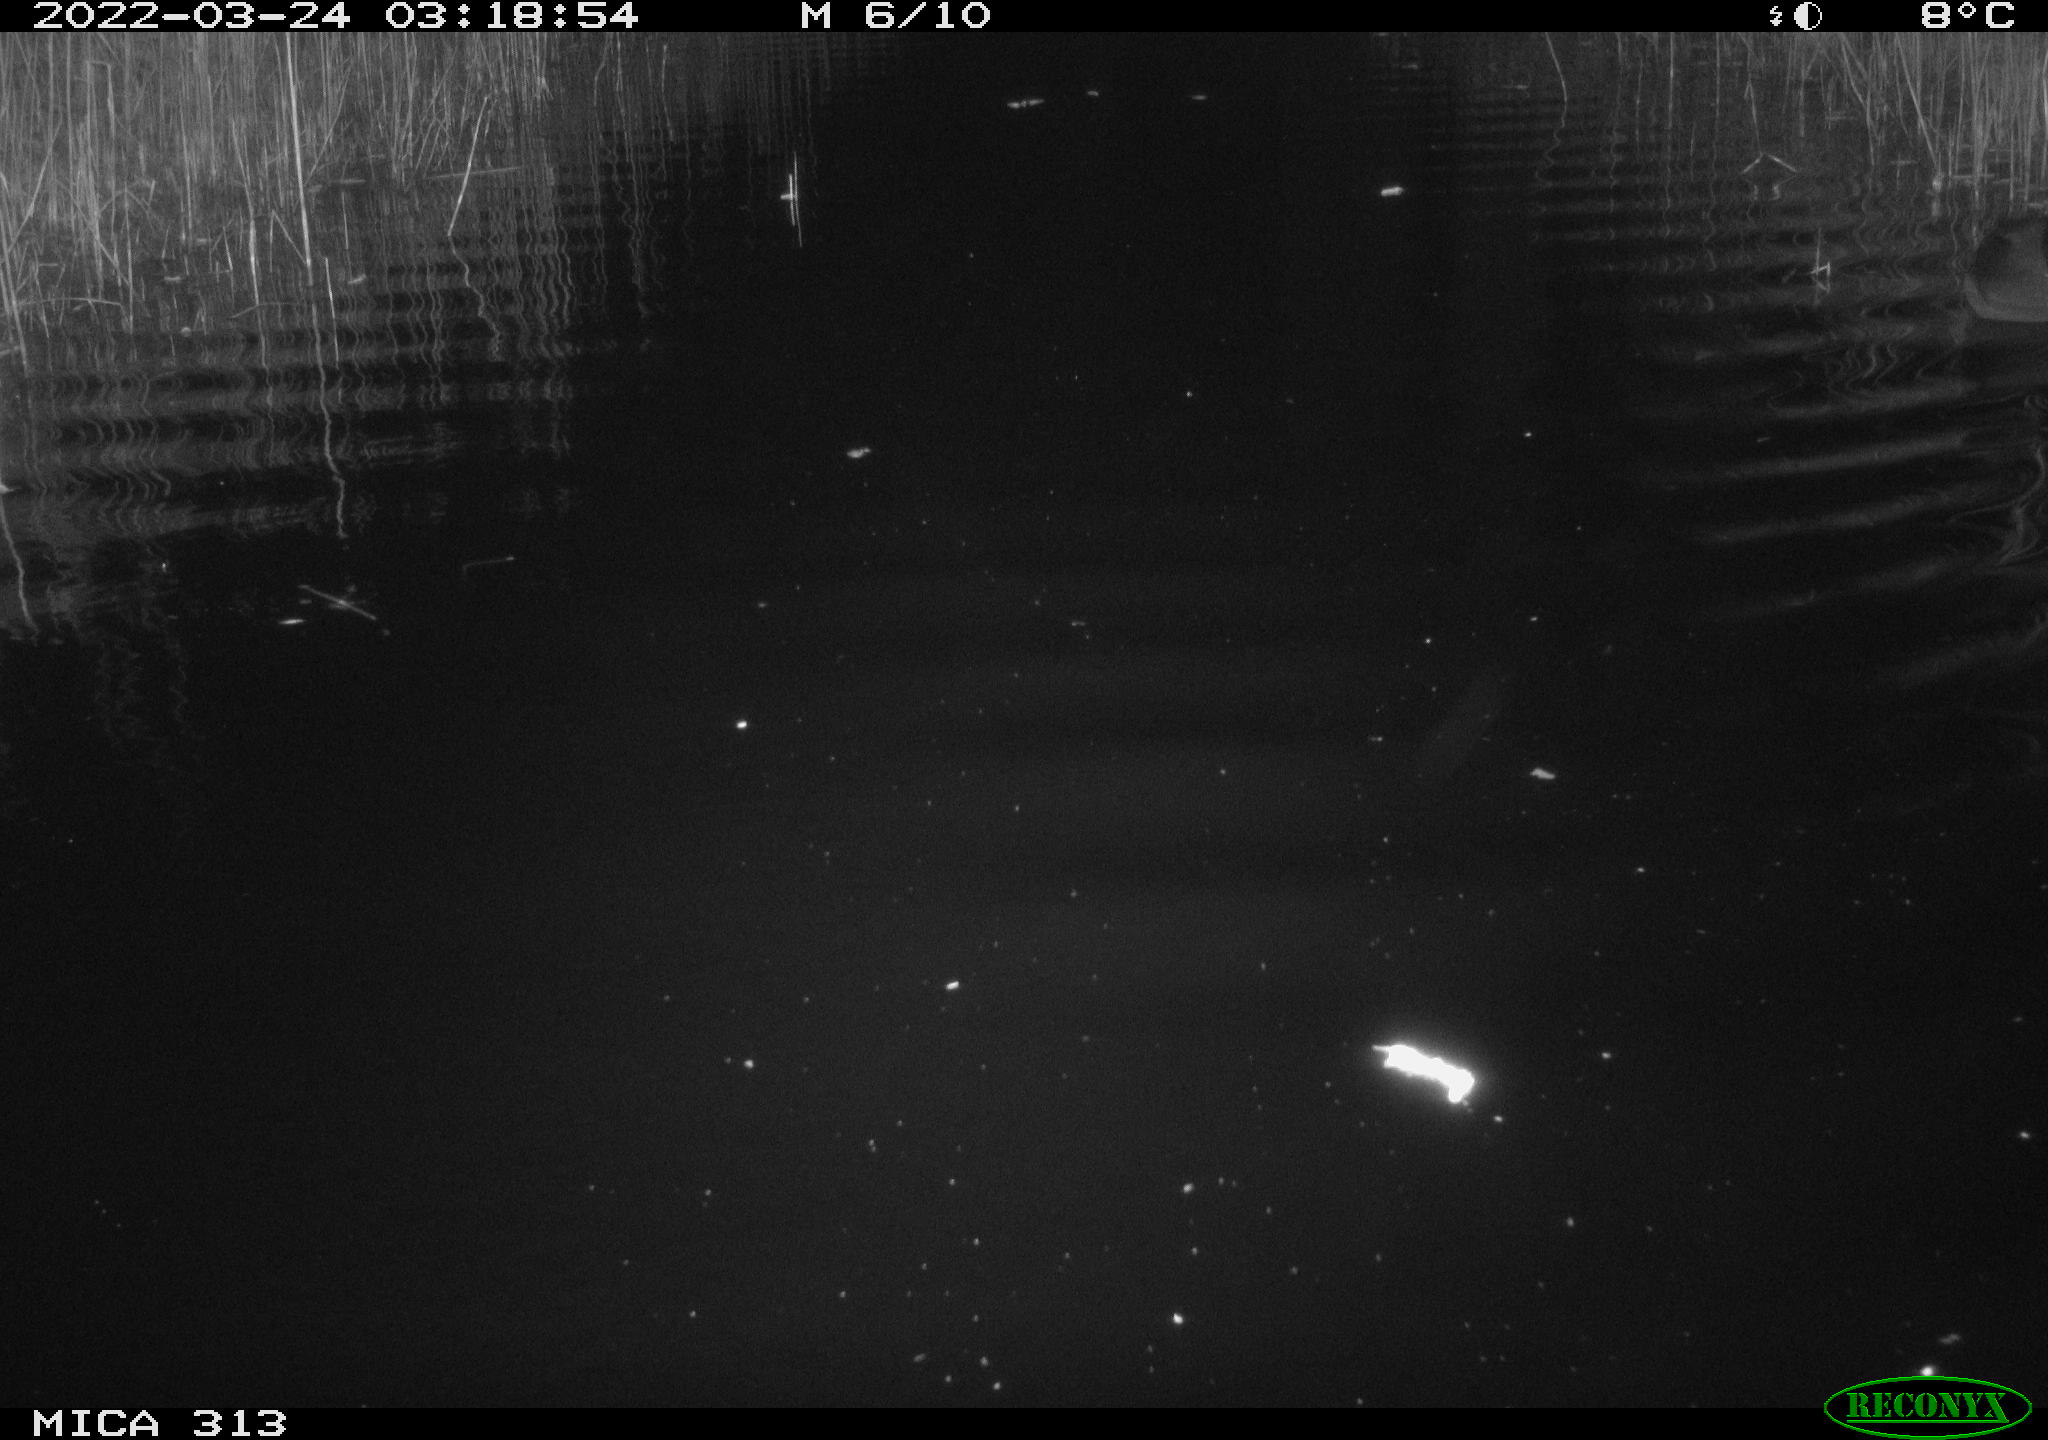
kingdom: Animalia
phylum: Chordata
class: Aves
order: Anseriformes
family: Anatidae
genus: Anas
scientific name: Anas platyrhynchos
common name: Mallard
